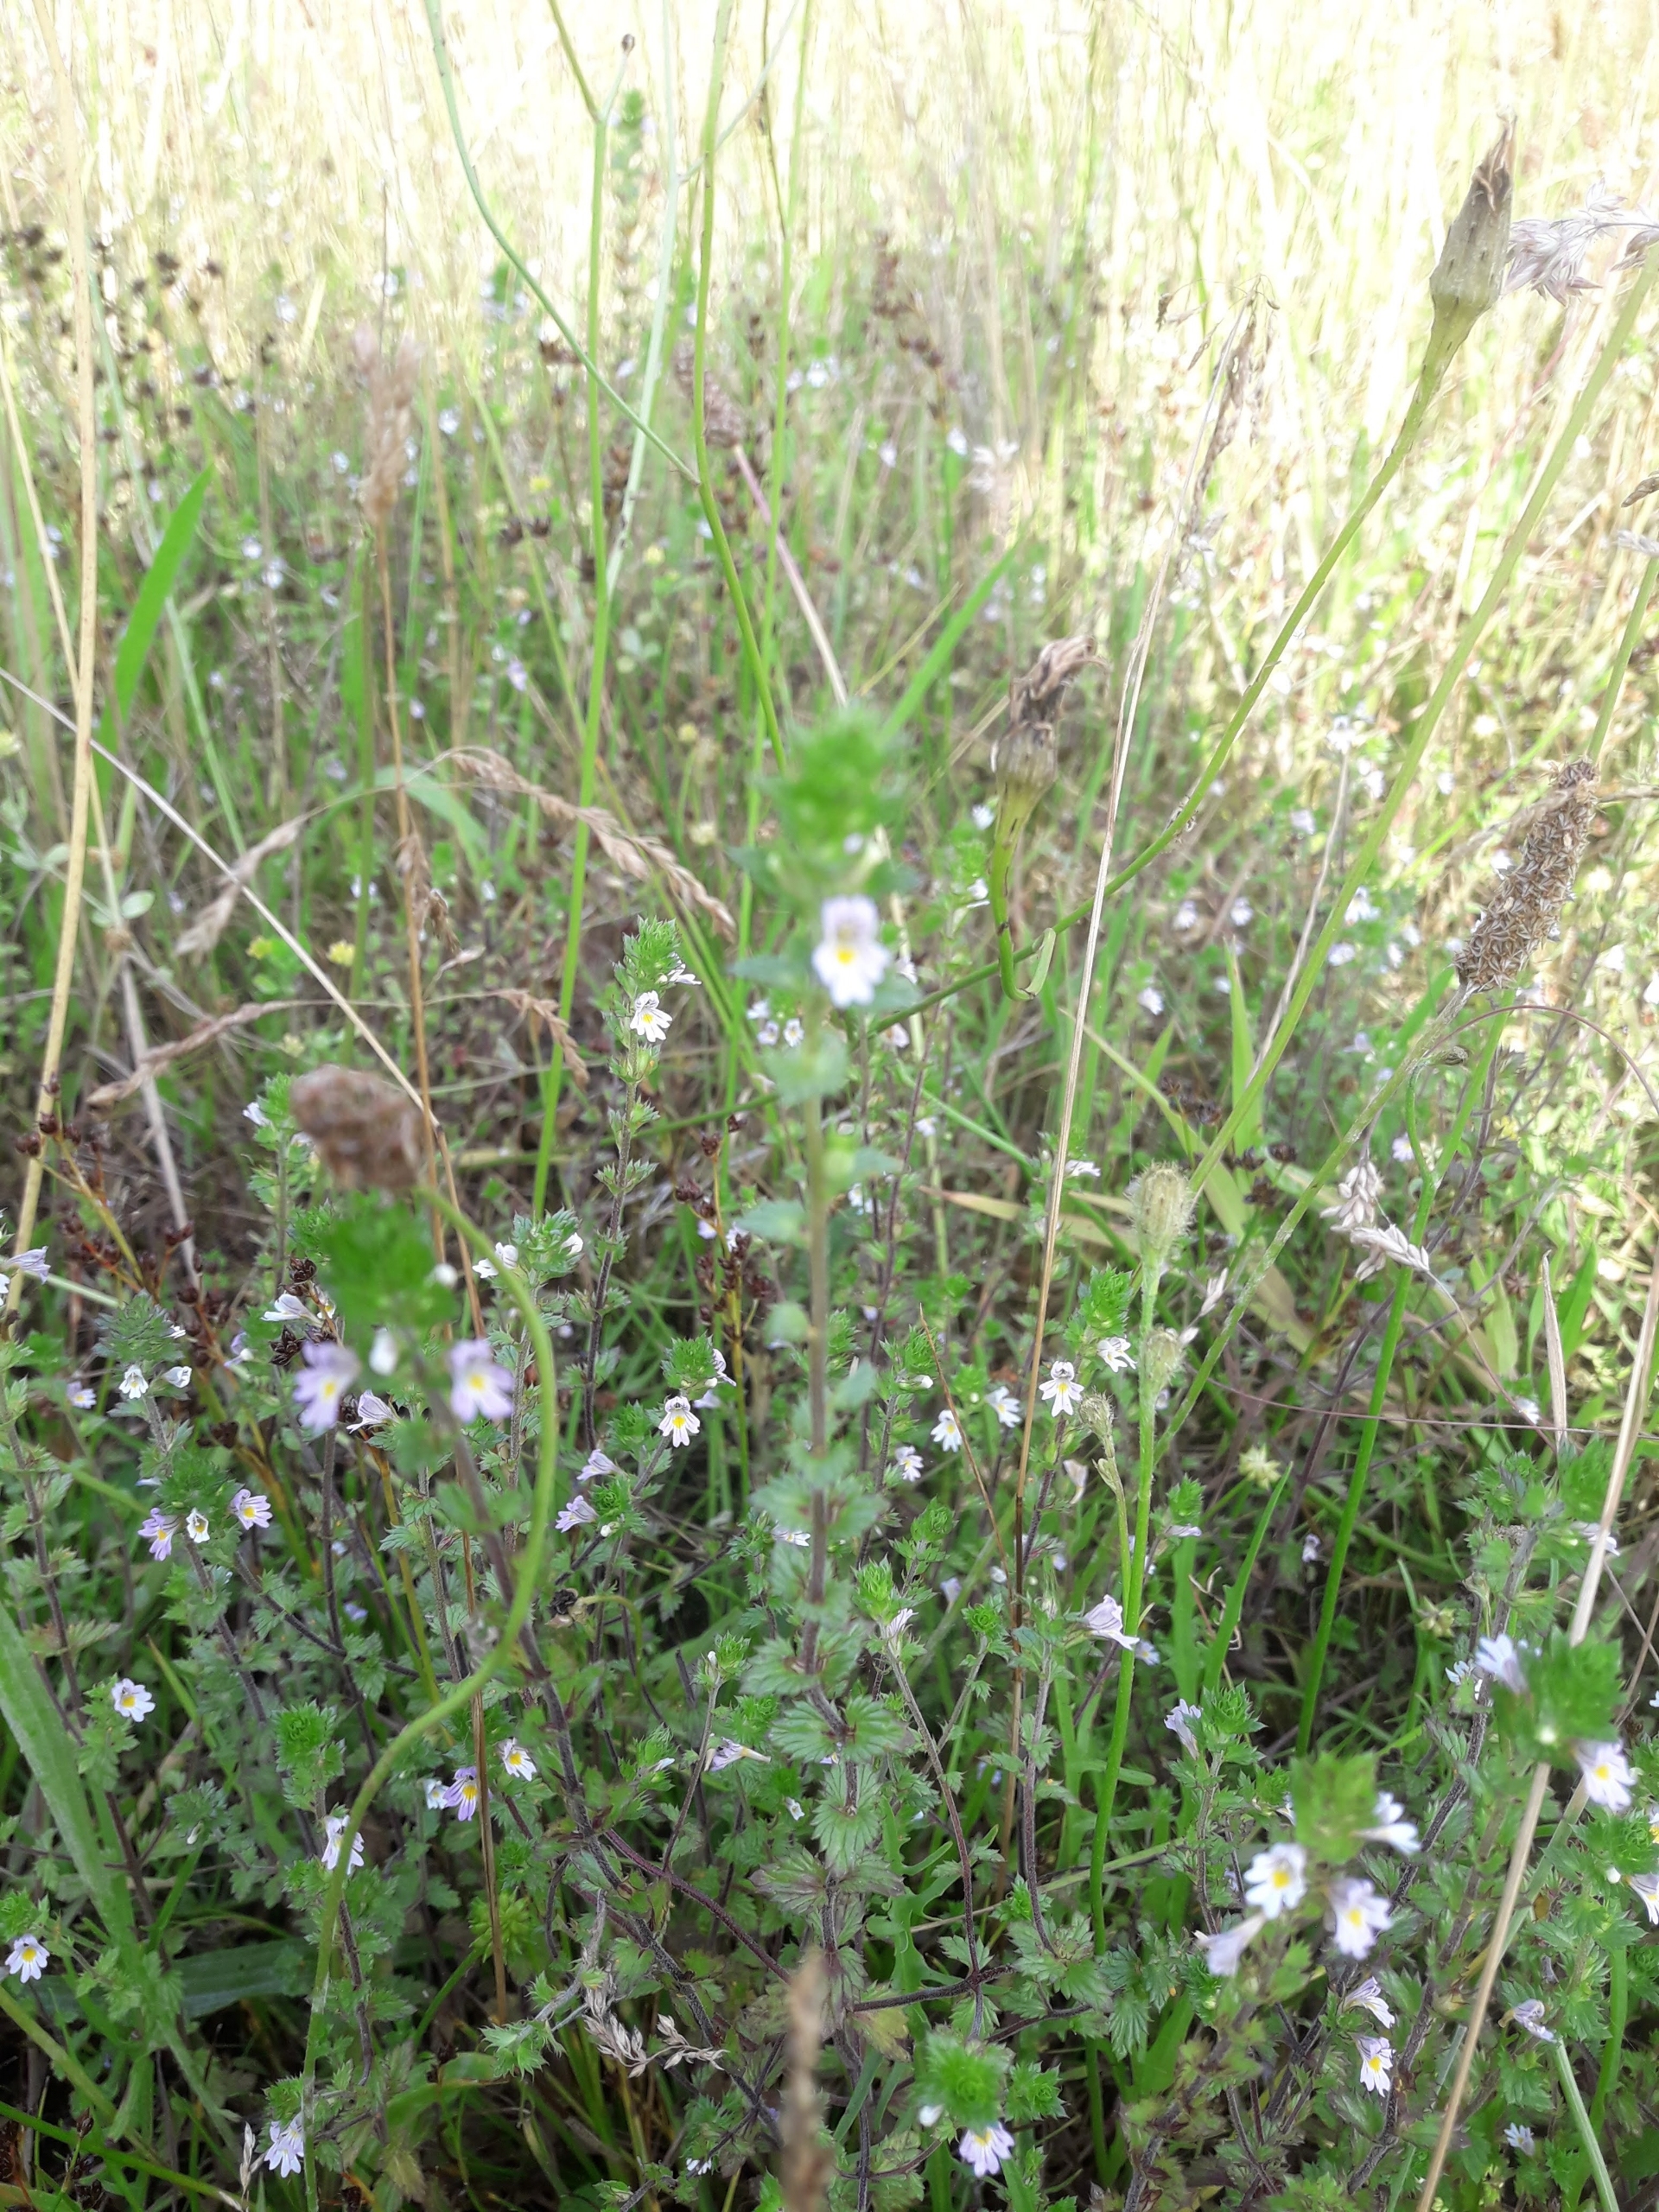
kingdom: Plantae
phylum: Tracheophyta
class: Magnoliopsida
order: Lamiales
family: Orobanchaceae
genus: Euphrasia
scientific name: Euphrasia stricta
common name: Spids øjentrøst
